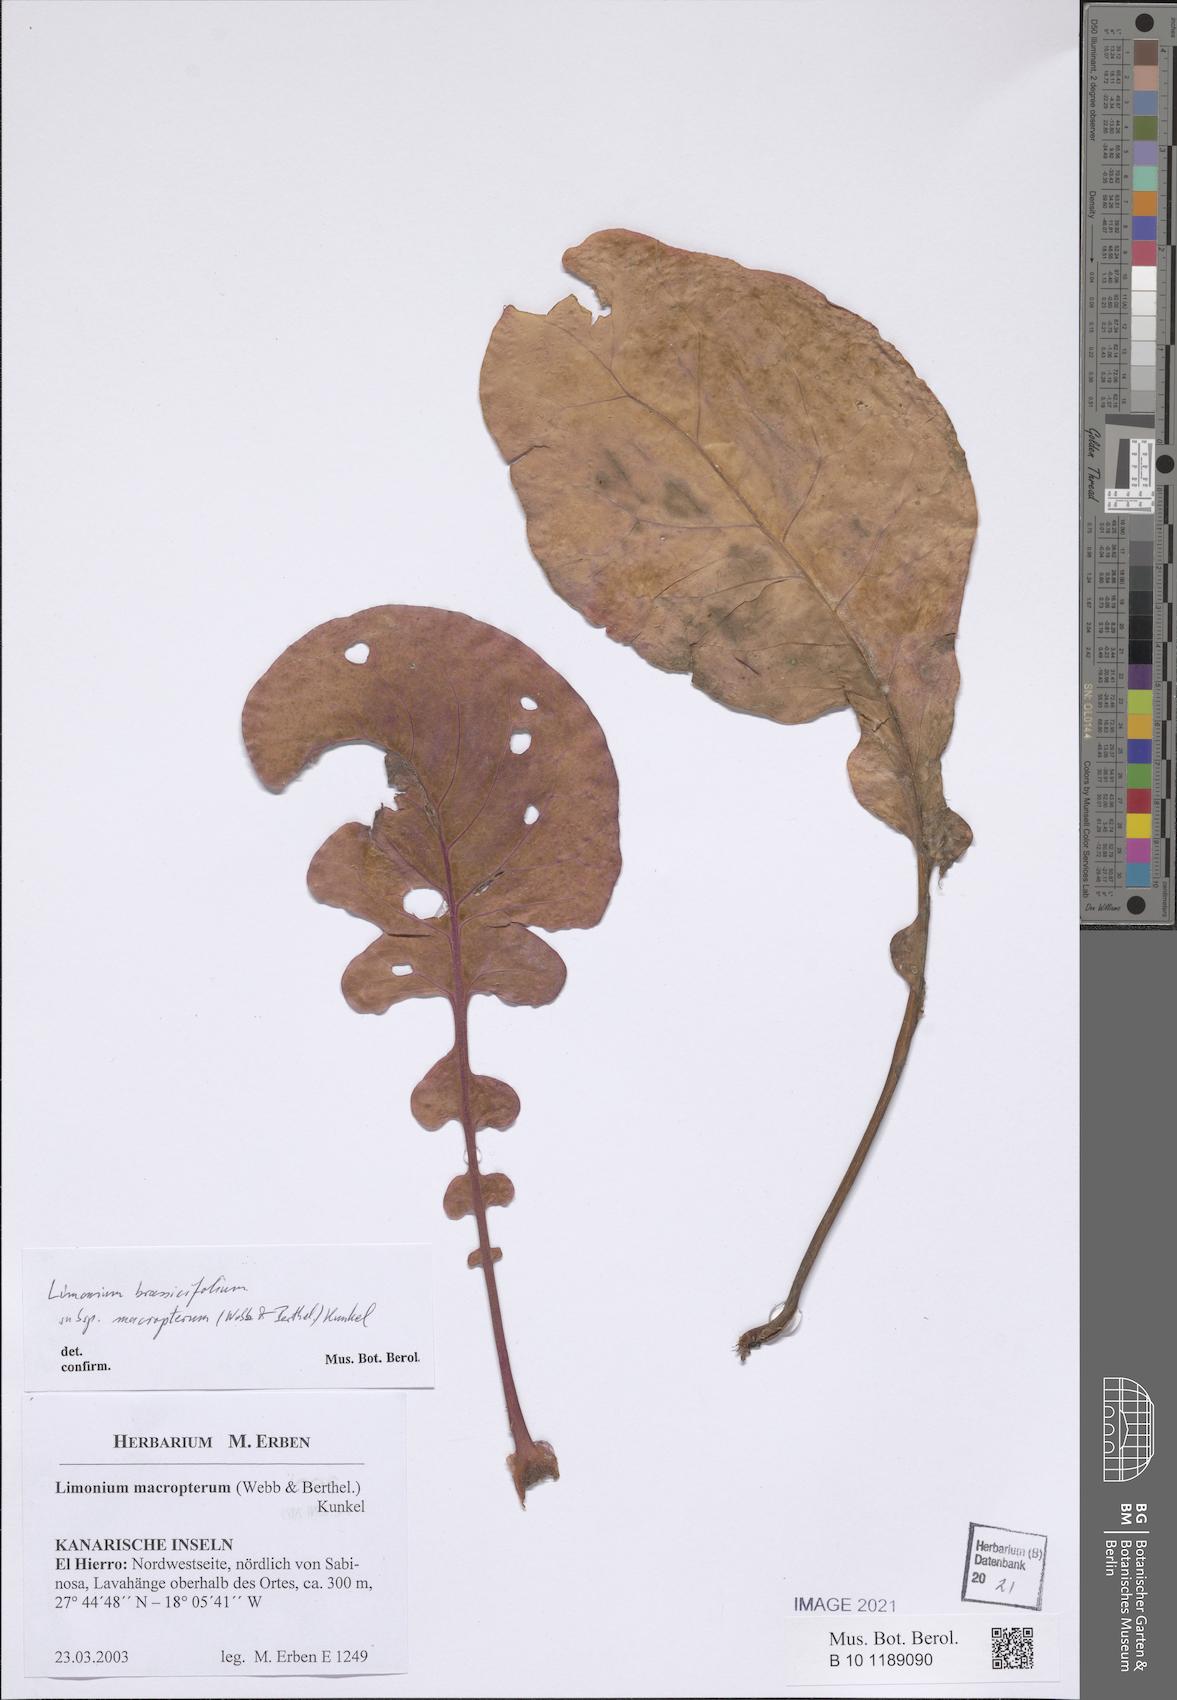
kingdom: Plantae
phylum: Tracheophyta
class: Magnoliopsida
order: Caryophyllales
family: Plumbaginaceae
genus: Limonium
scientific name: Limonium macropterum
